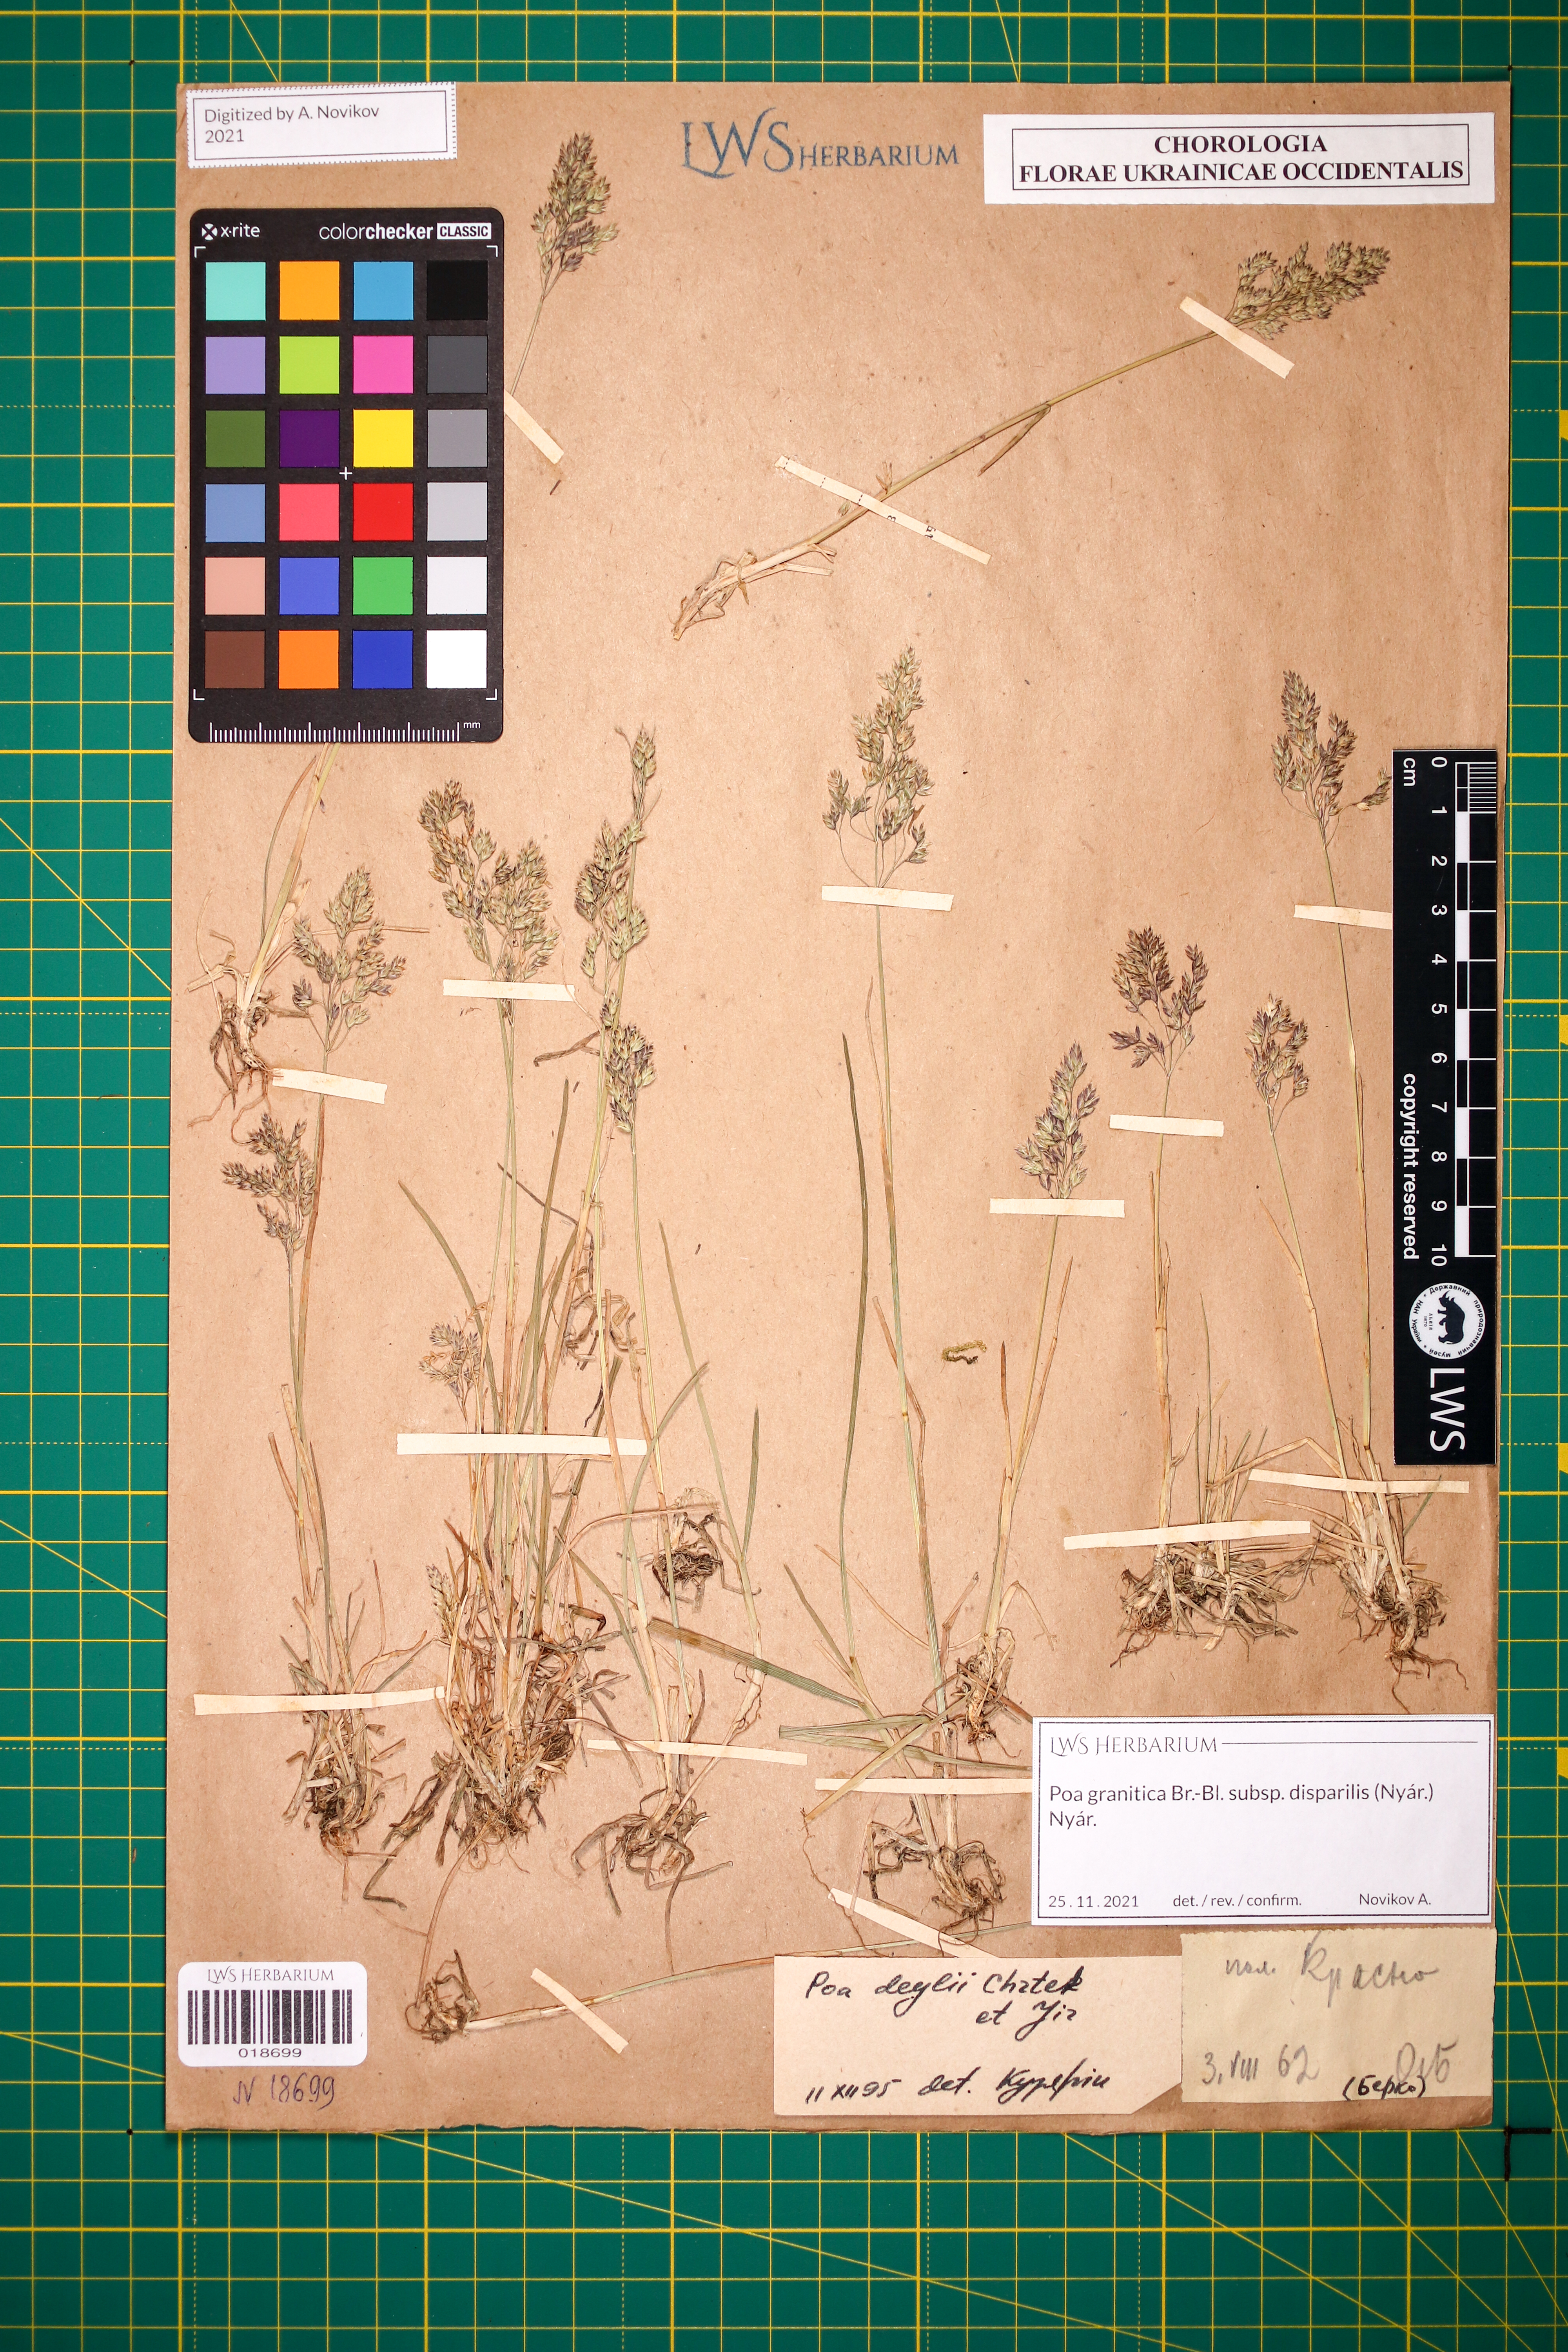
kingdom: Plantae
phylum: Tracheophyta
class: Liliopsida
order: Poales
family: Poaceae
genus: Poa
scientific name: Poa granitica
